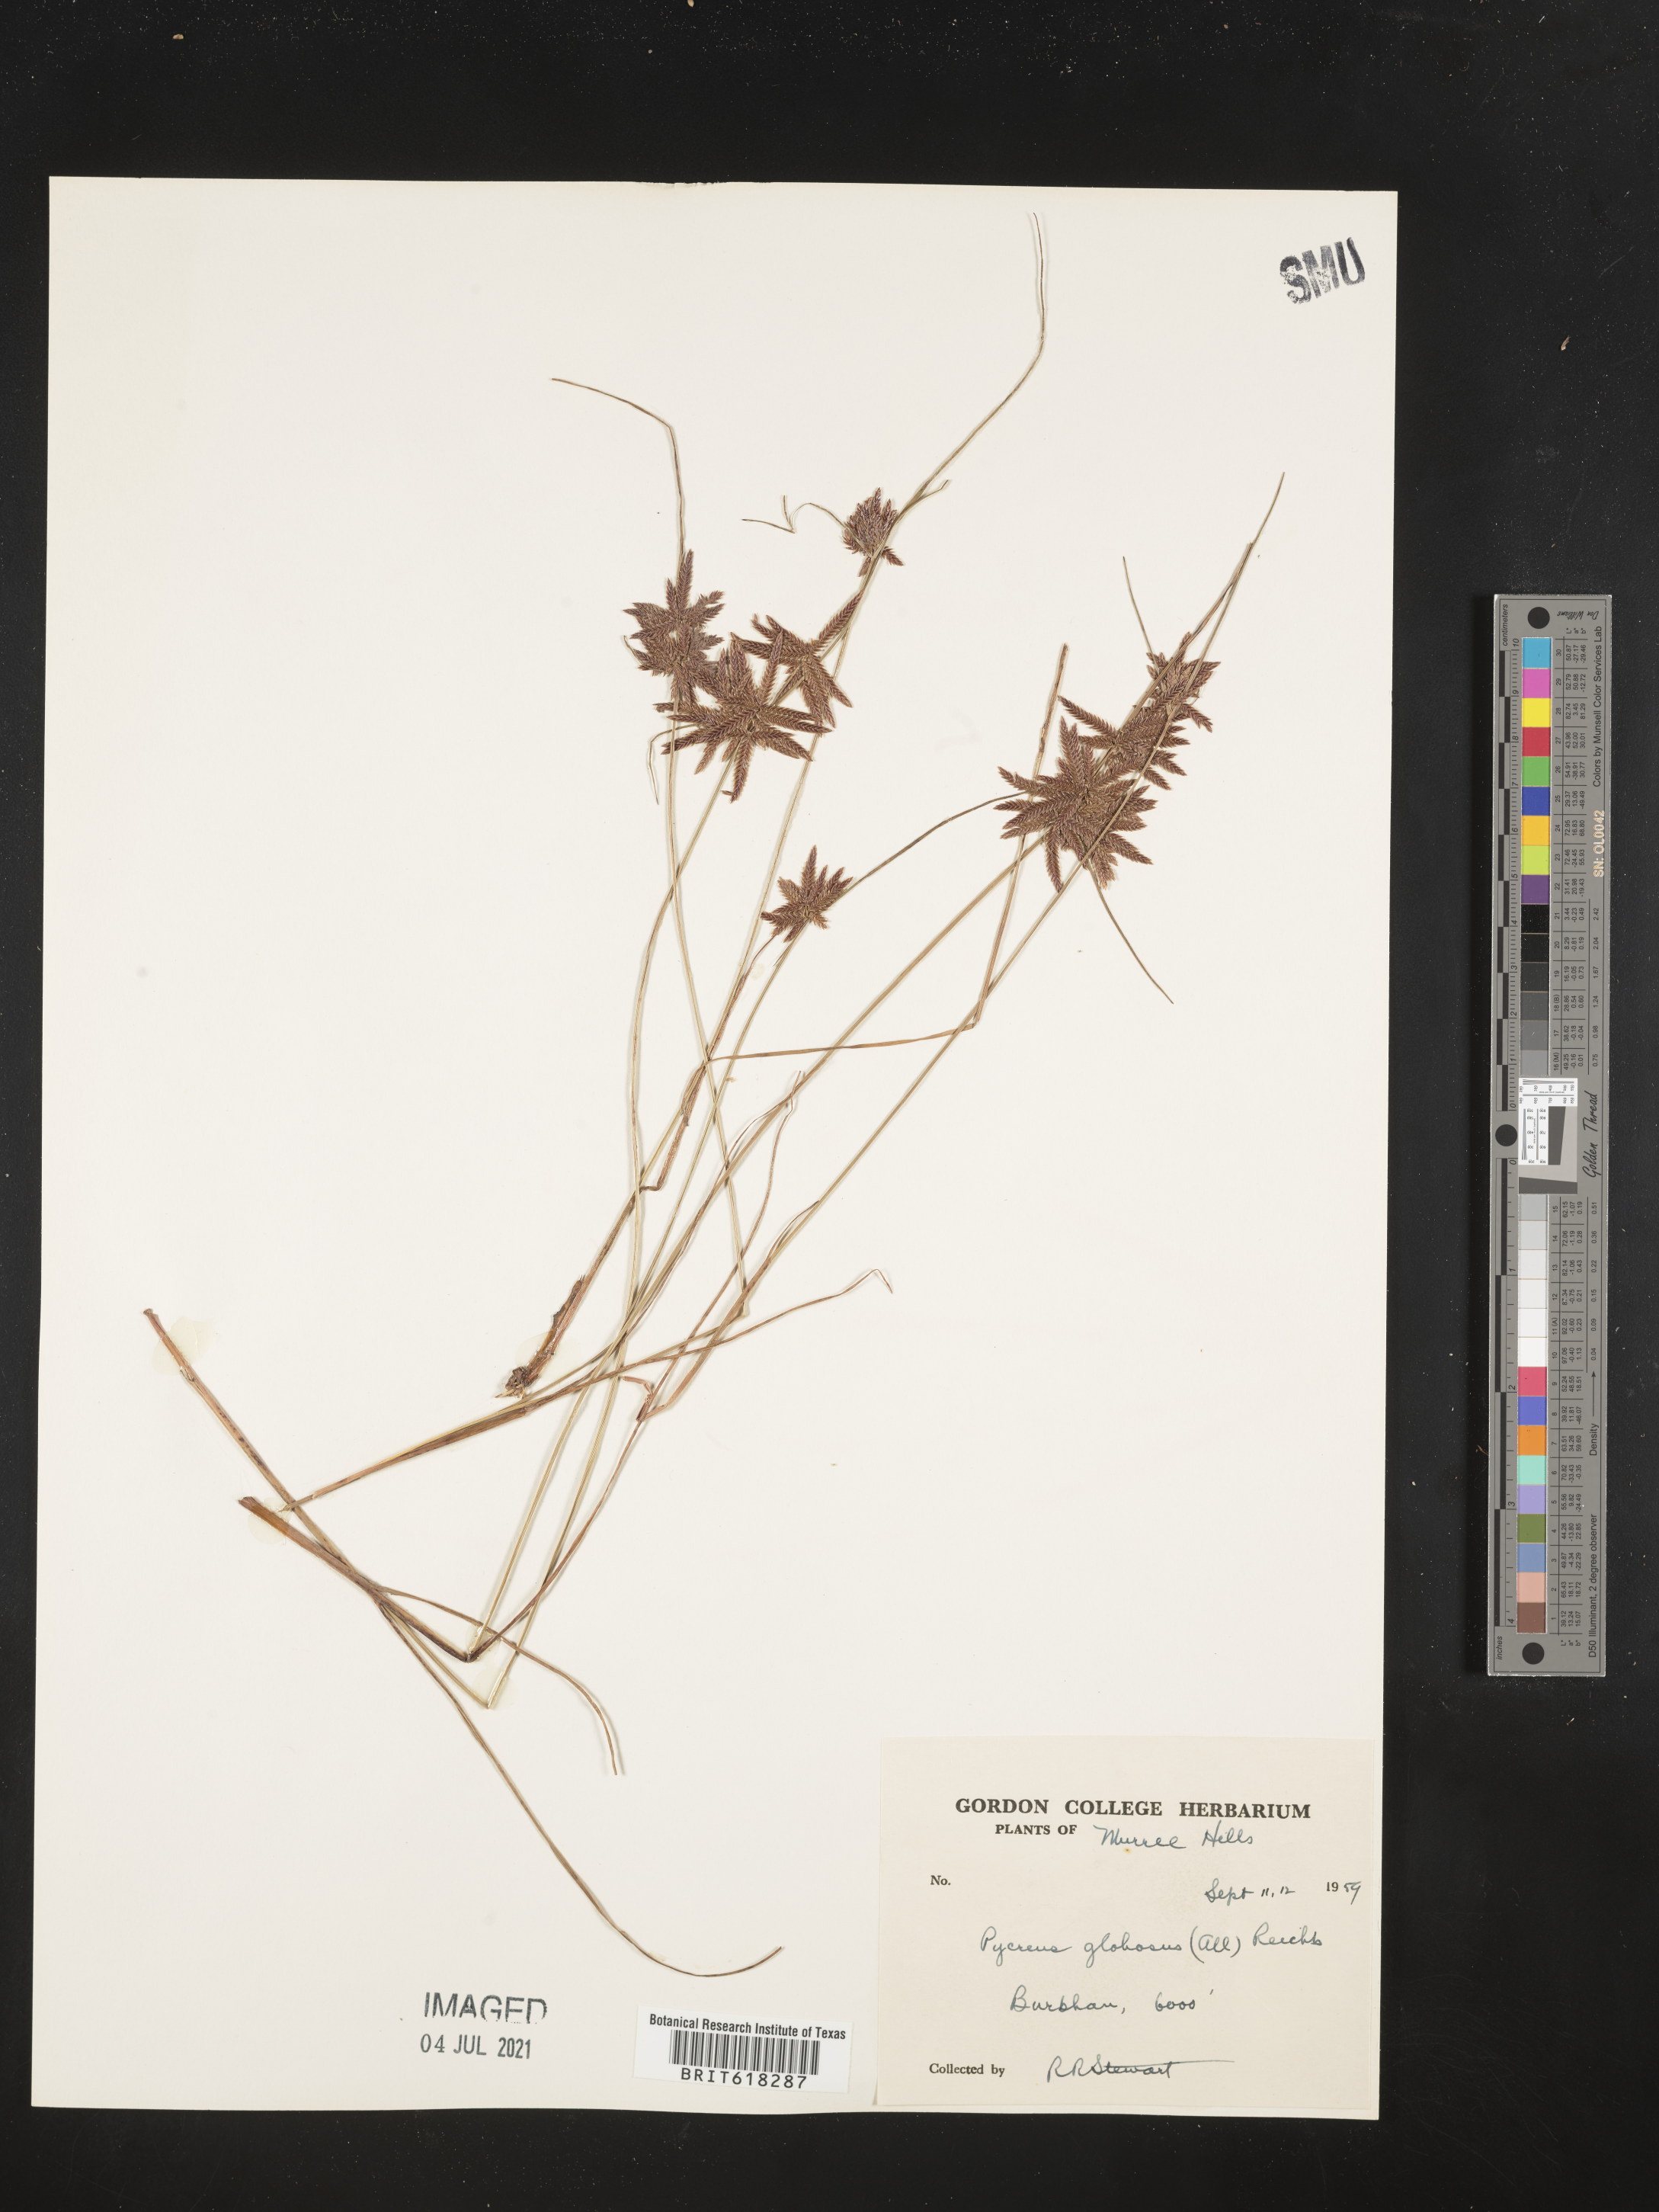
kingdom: Plantae
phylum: Tracheophyta
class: Liliopsida
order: Poales
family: Cyperaceae
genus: Cyperus
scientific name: Cyperus flavidus
